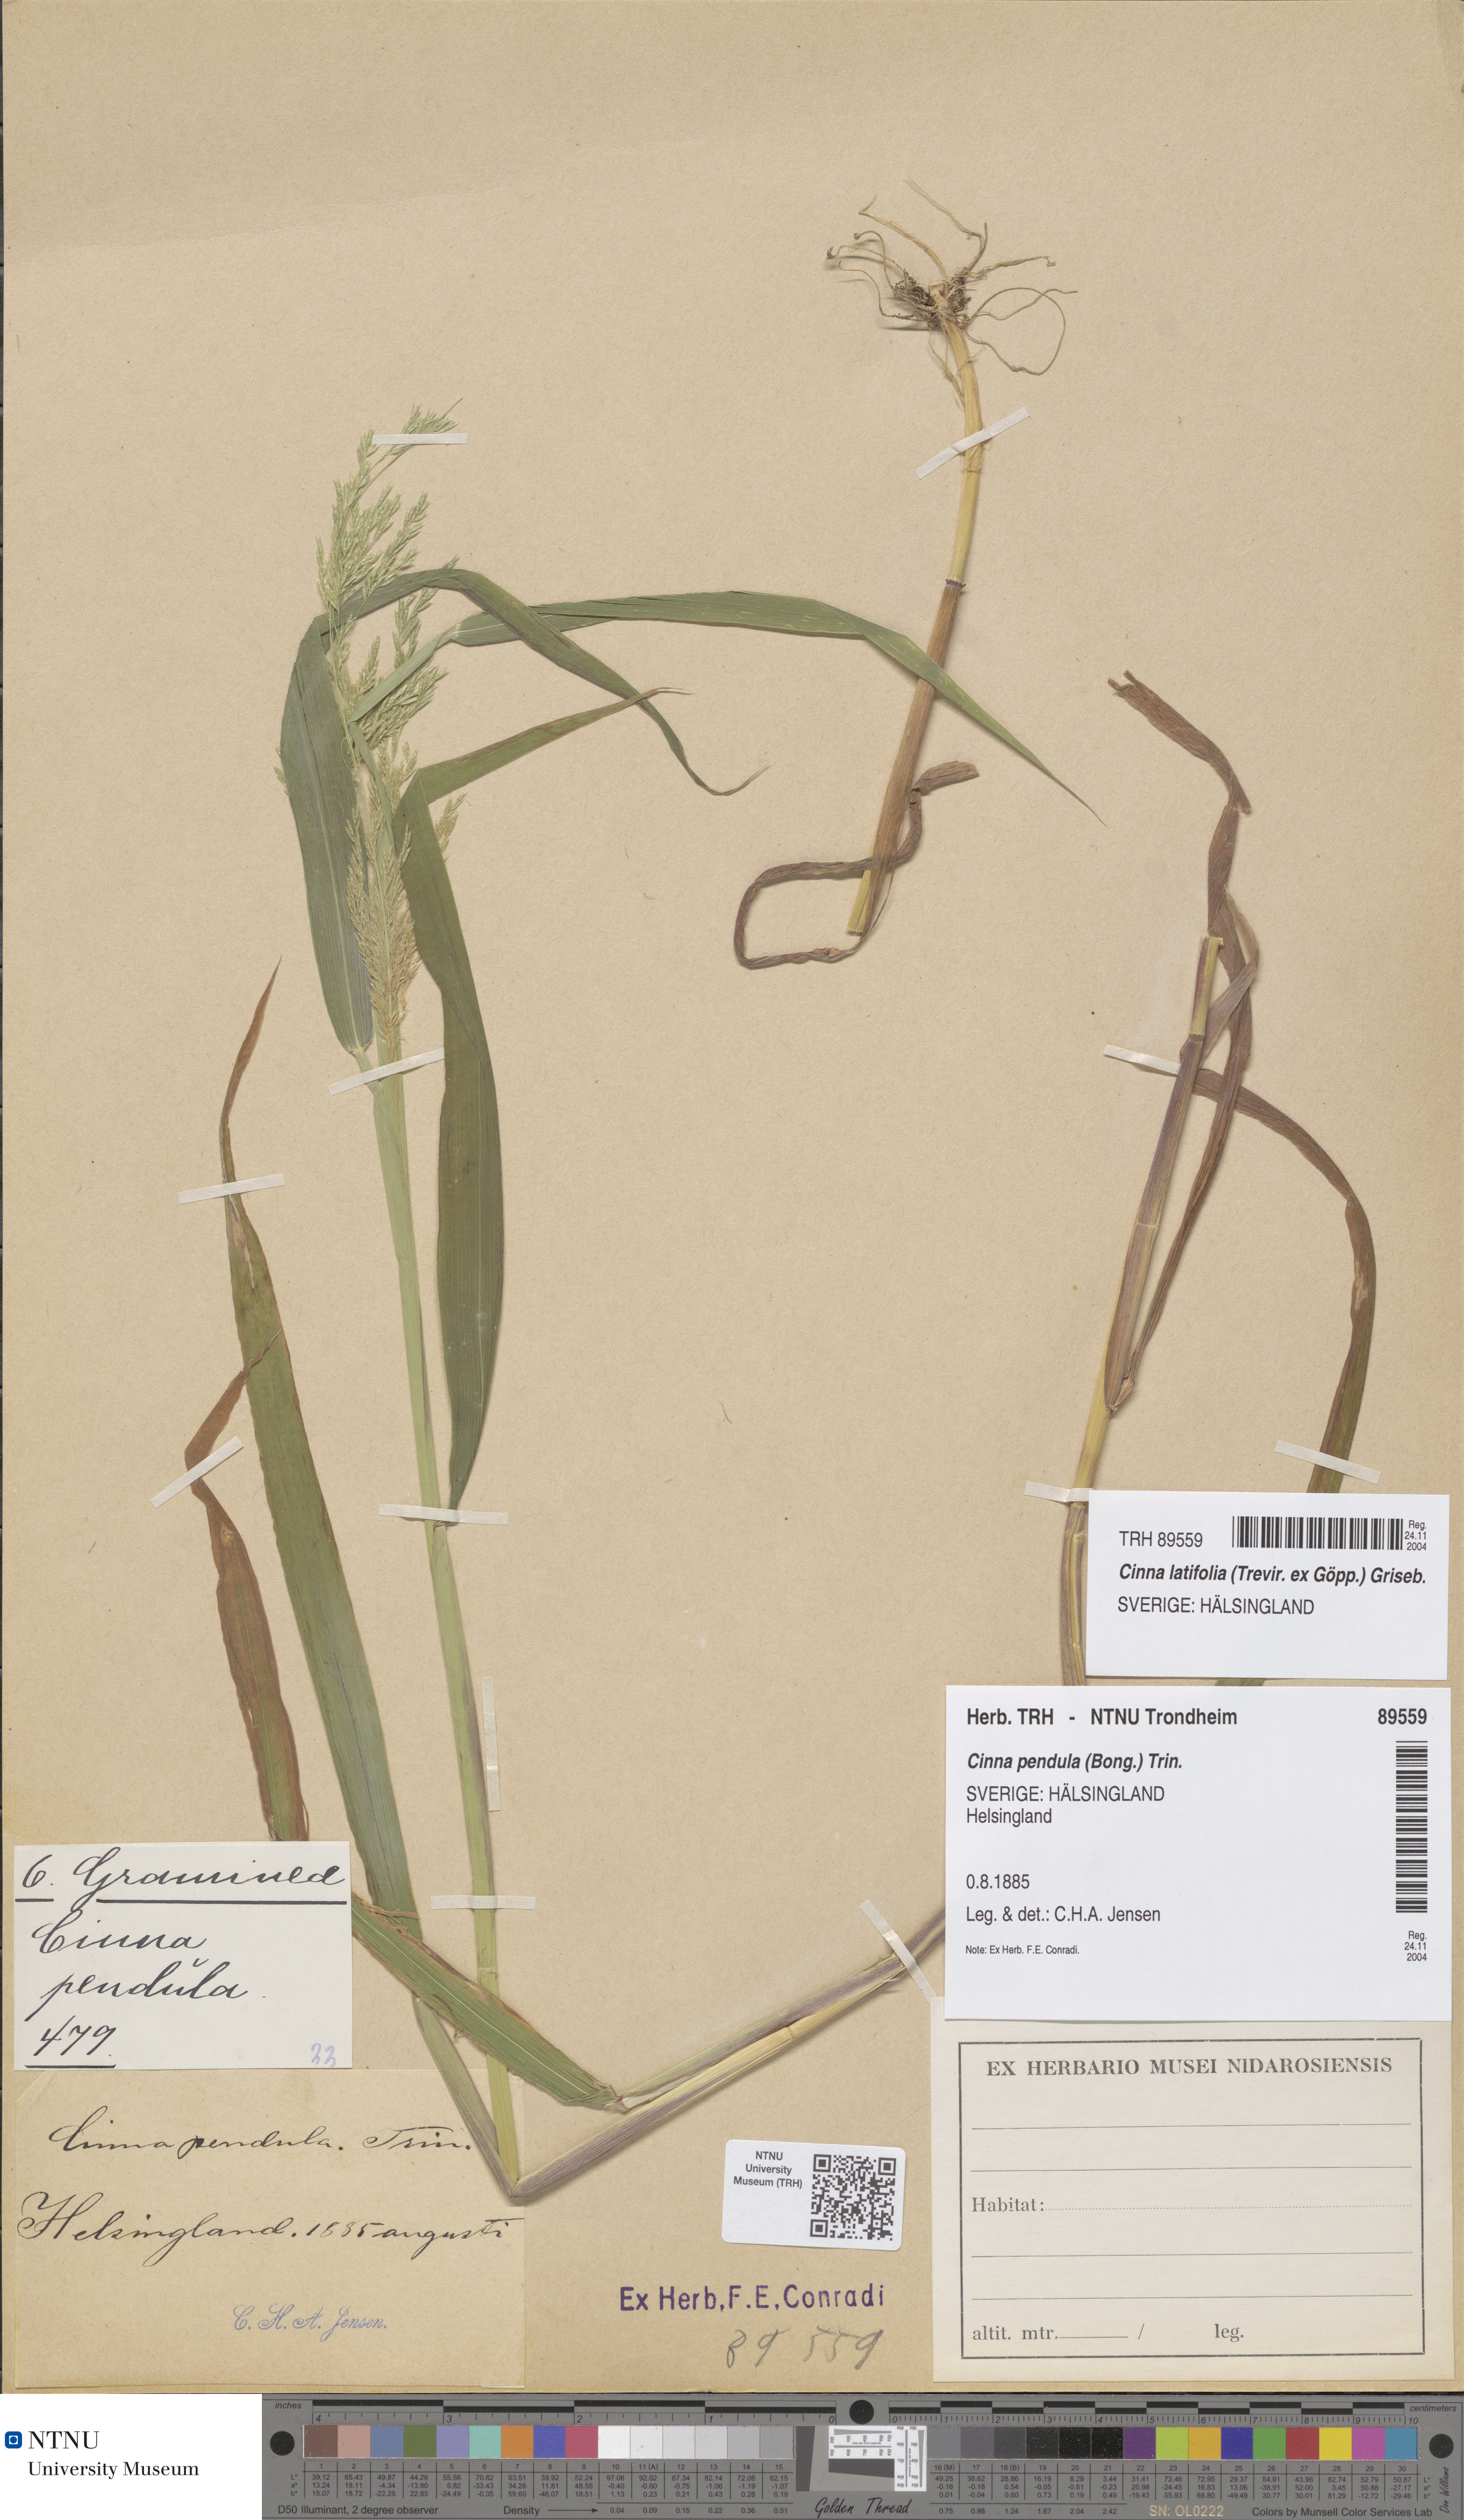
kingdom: Plantae
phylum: Tracheophyta
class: Liliopsida
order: Poales
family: Poaceae
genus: Cinna
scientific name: Cinna latifolia
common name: Drooping woodreed
